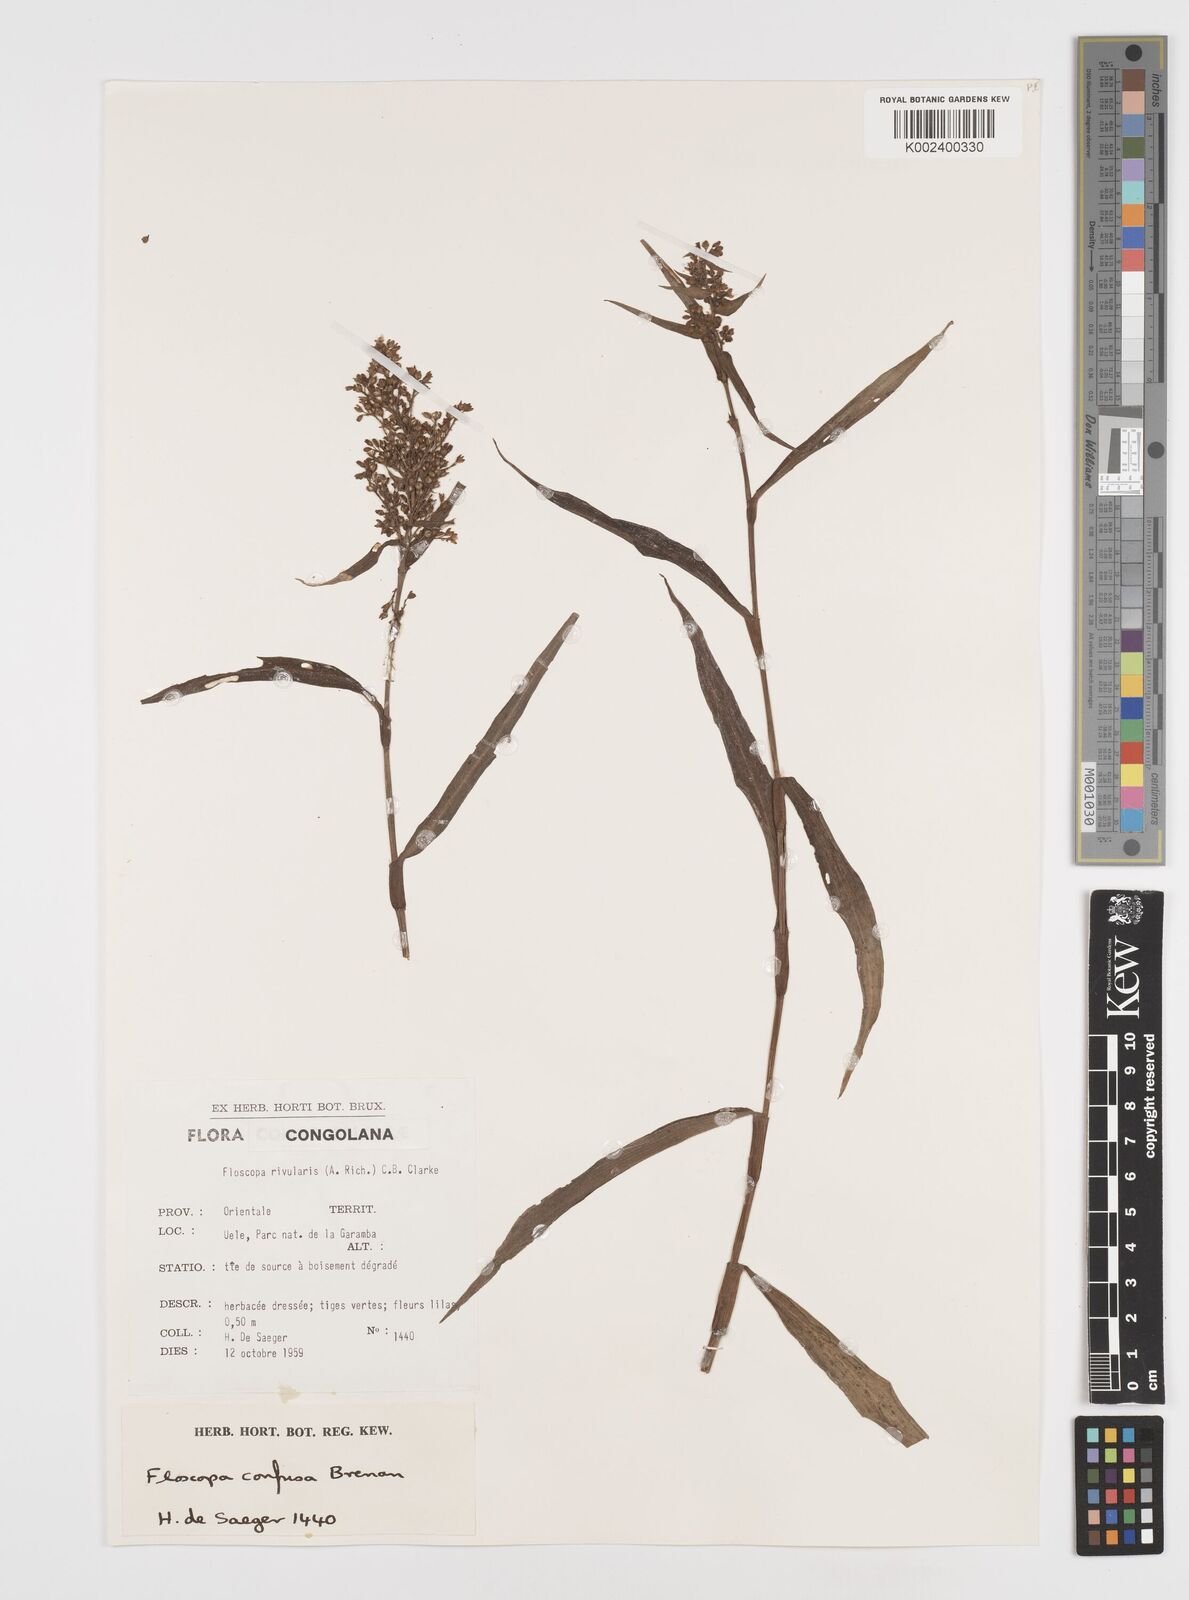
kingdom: Plantae
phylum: Tracheophyta
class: Liliopsida
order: Commelinales
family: Commelinaceae
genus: Floscopa
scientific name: Floscopa confusa
